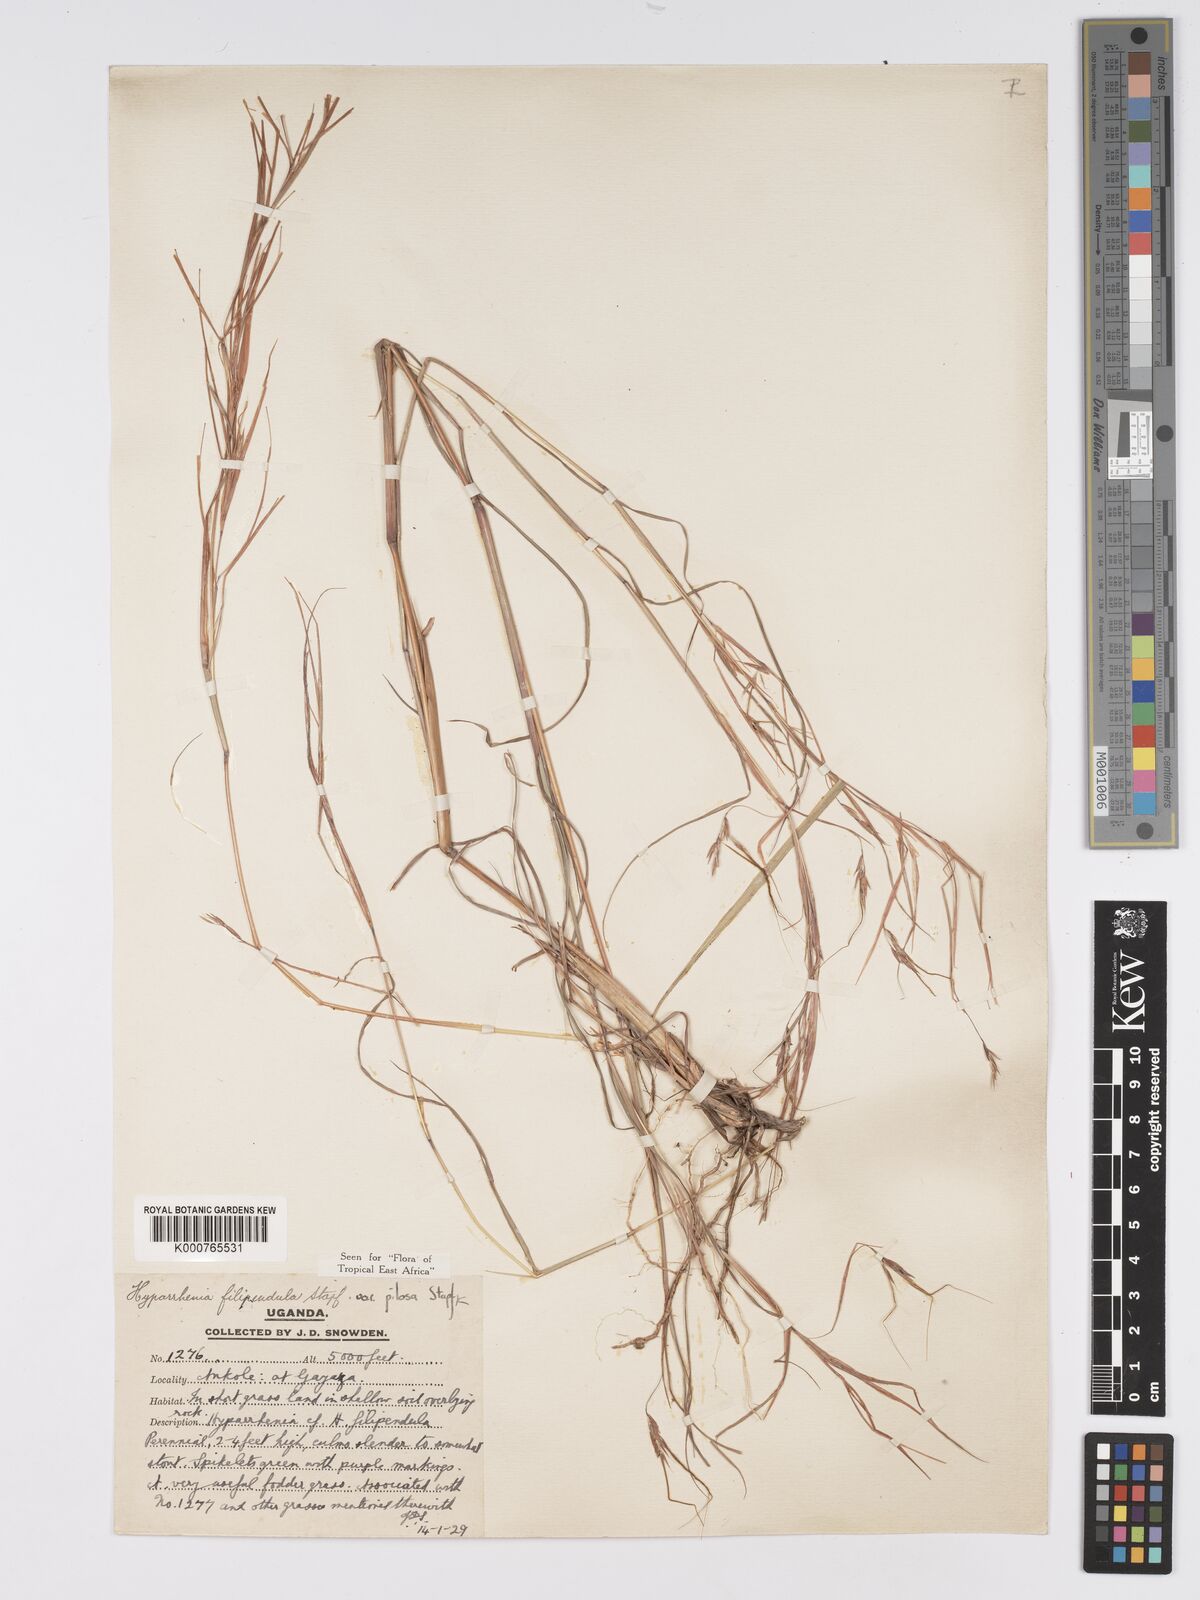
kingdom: Plantae
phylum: Tracheophyta
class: Liliopsida
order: Poales
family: Poaceae
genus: Hyparrhenia
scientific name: Hyparrhenia filipendula
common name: Tambookie grass
